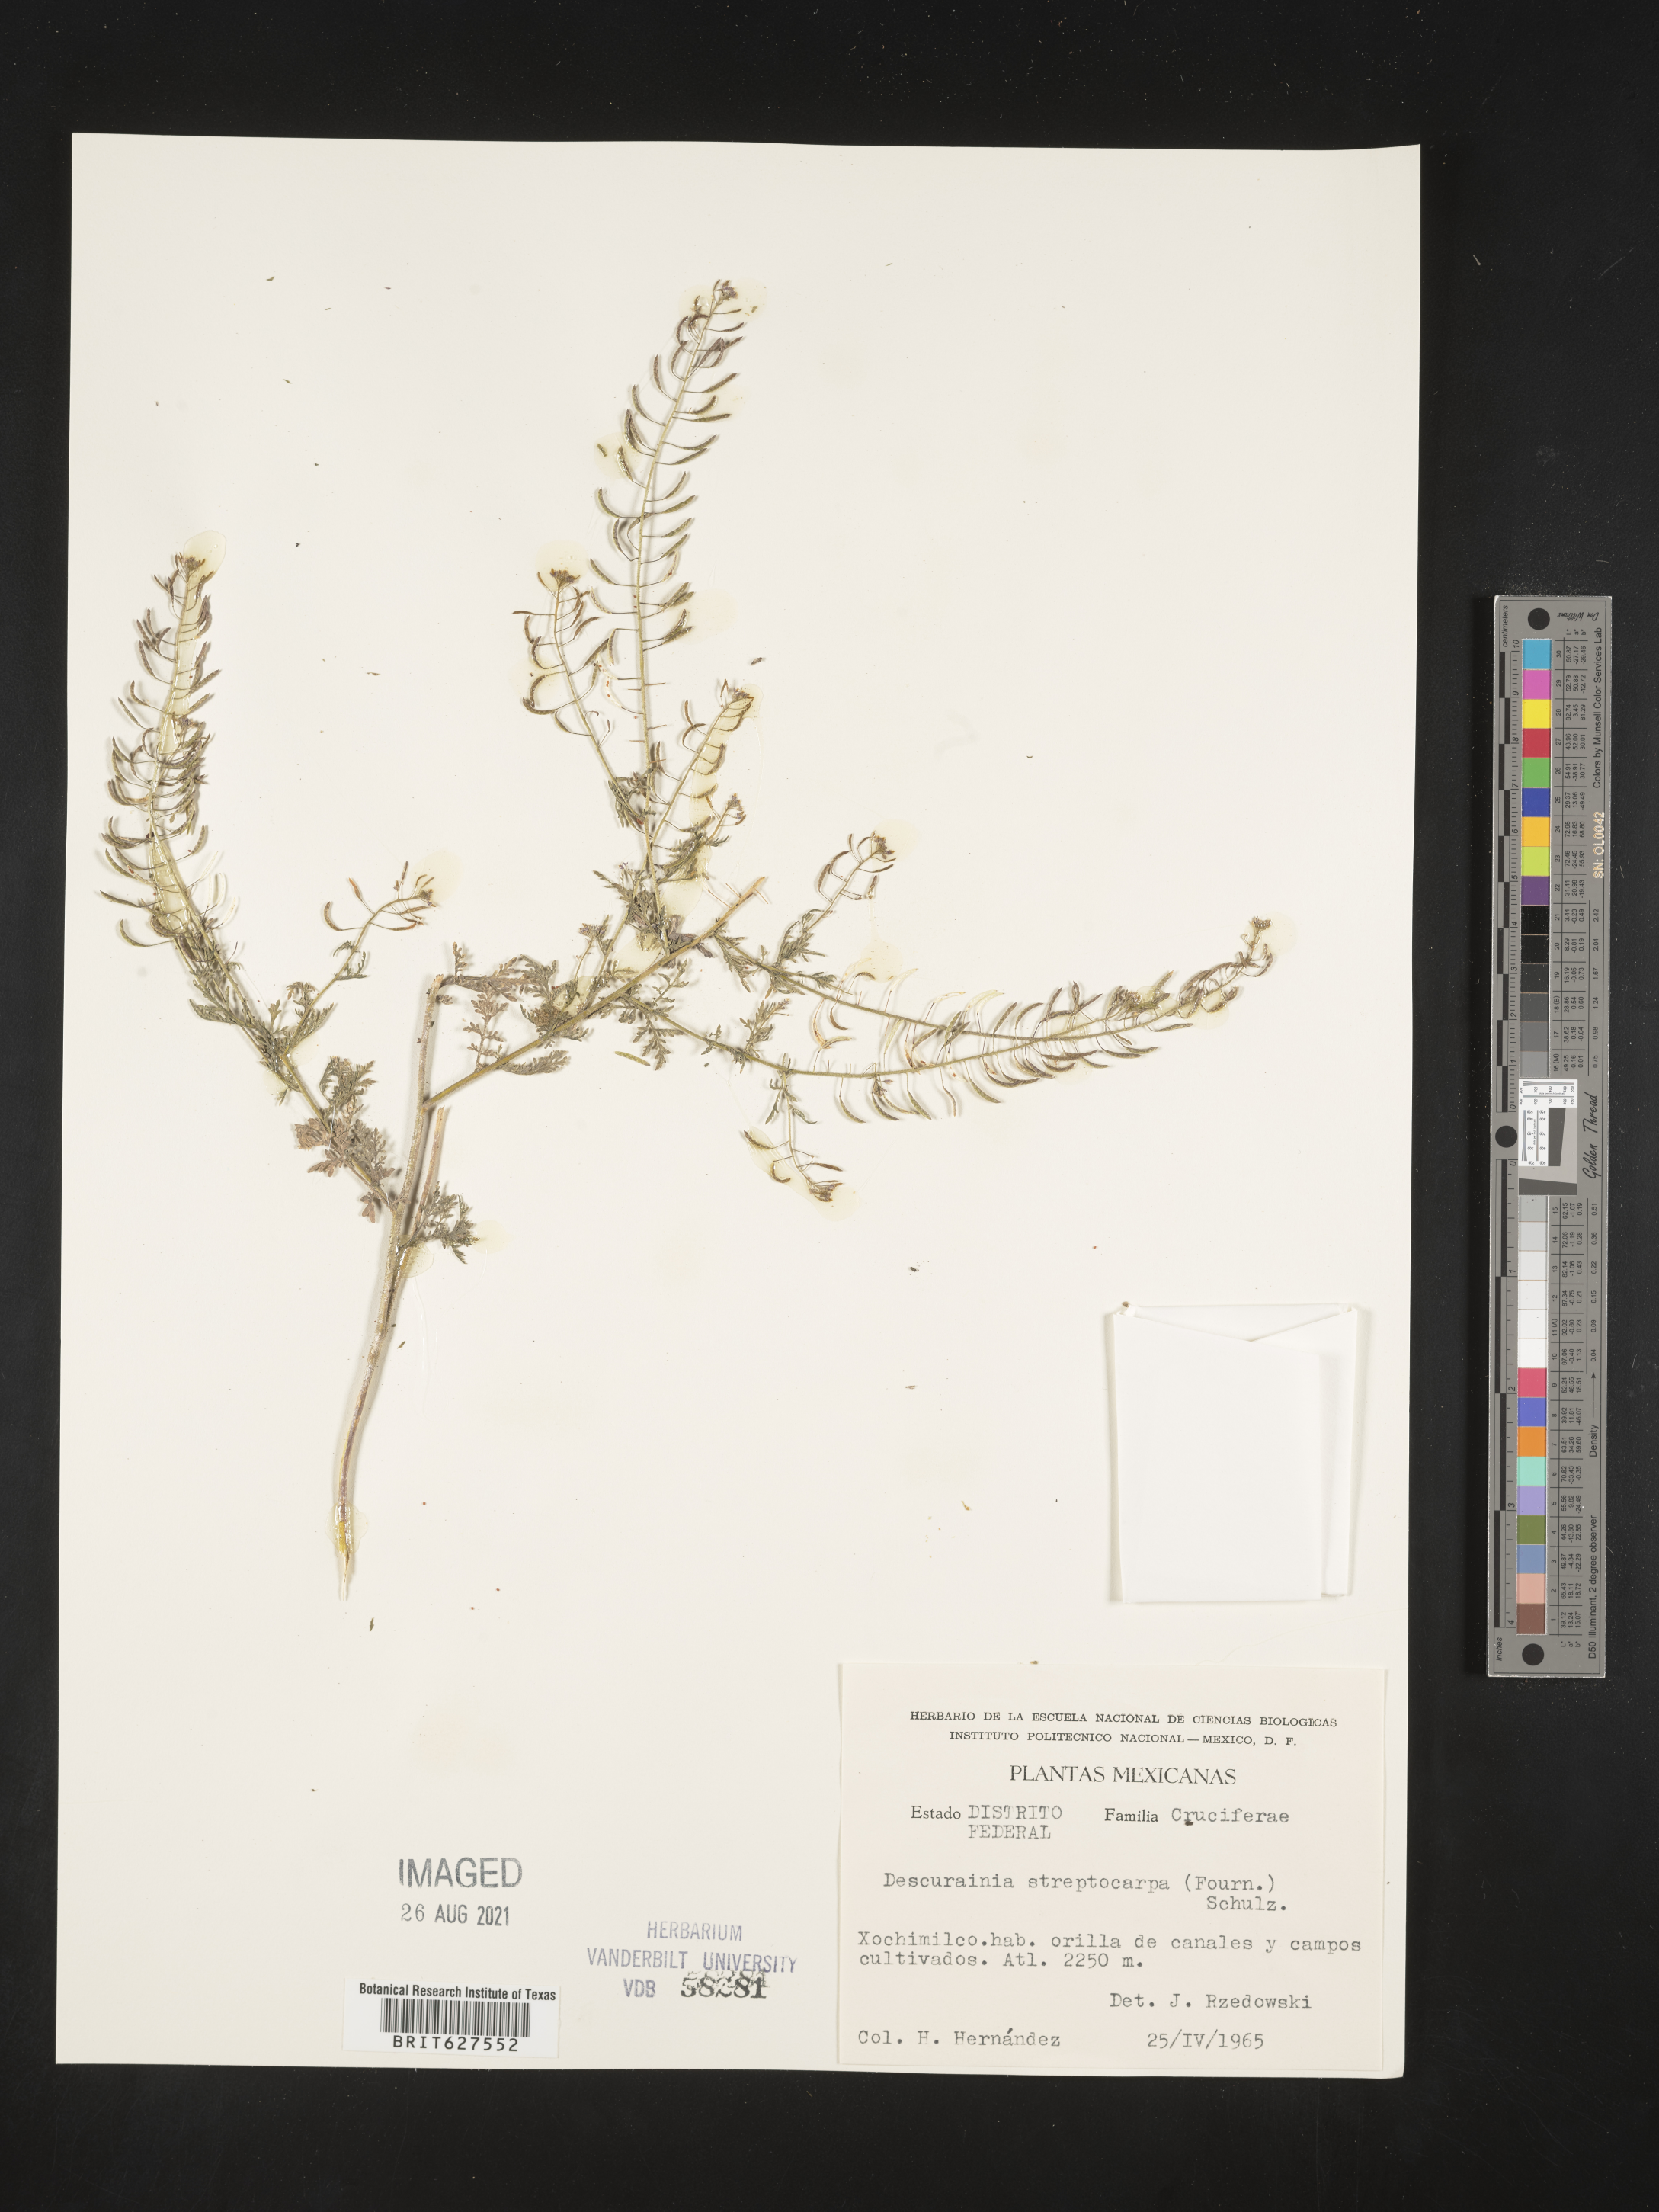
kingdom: Plantae
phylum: Tracheophyta
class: Magnoliopsida
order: Brassicales
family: Brassicaceae
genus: Descurainia
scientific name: Descurainia
